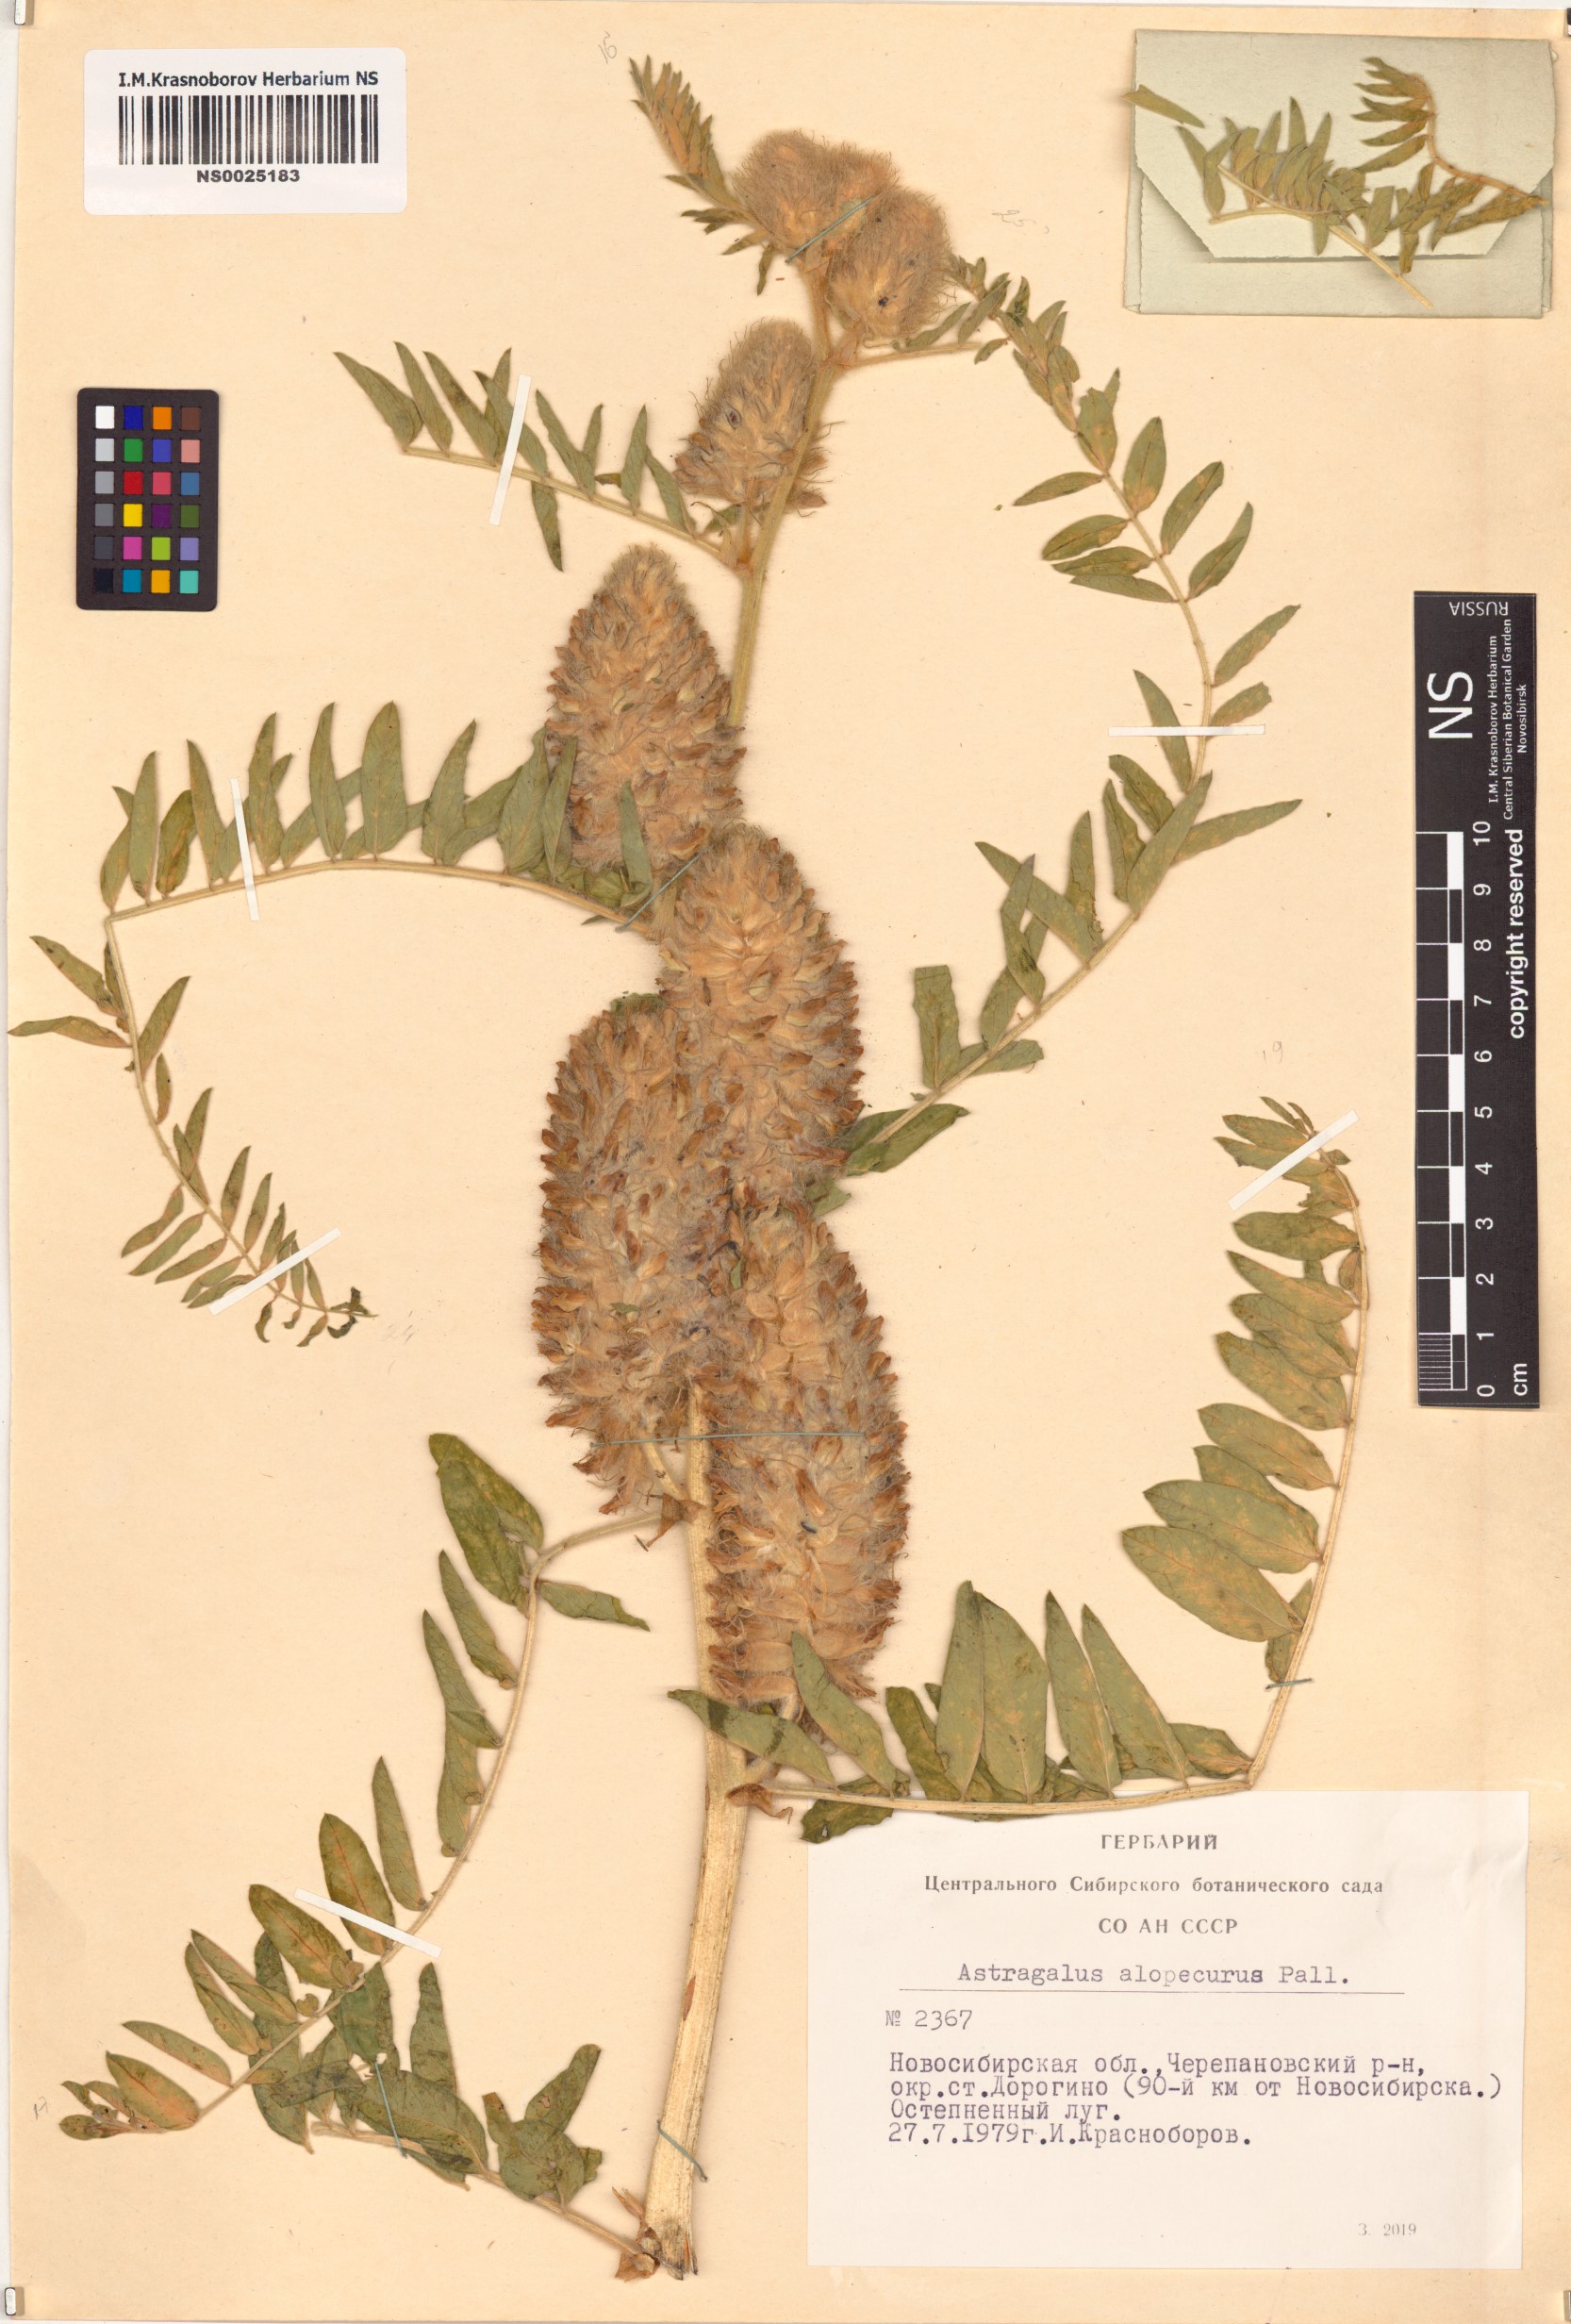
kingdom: Plantae
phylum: Tracheophyta
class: Magnoliopsida
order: Fabales
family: Fabaceae
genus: Astragalus
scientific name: Astragalus alopecurus
